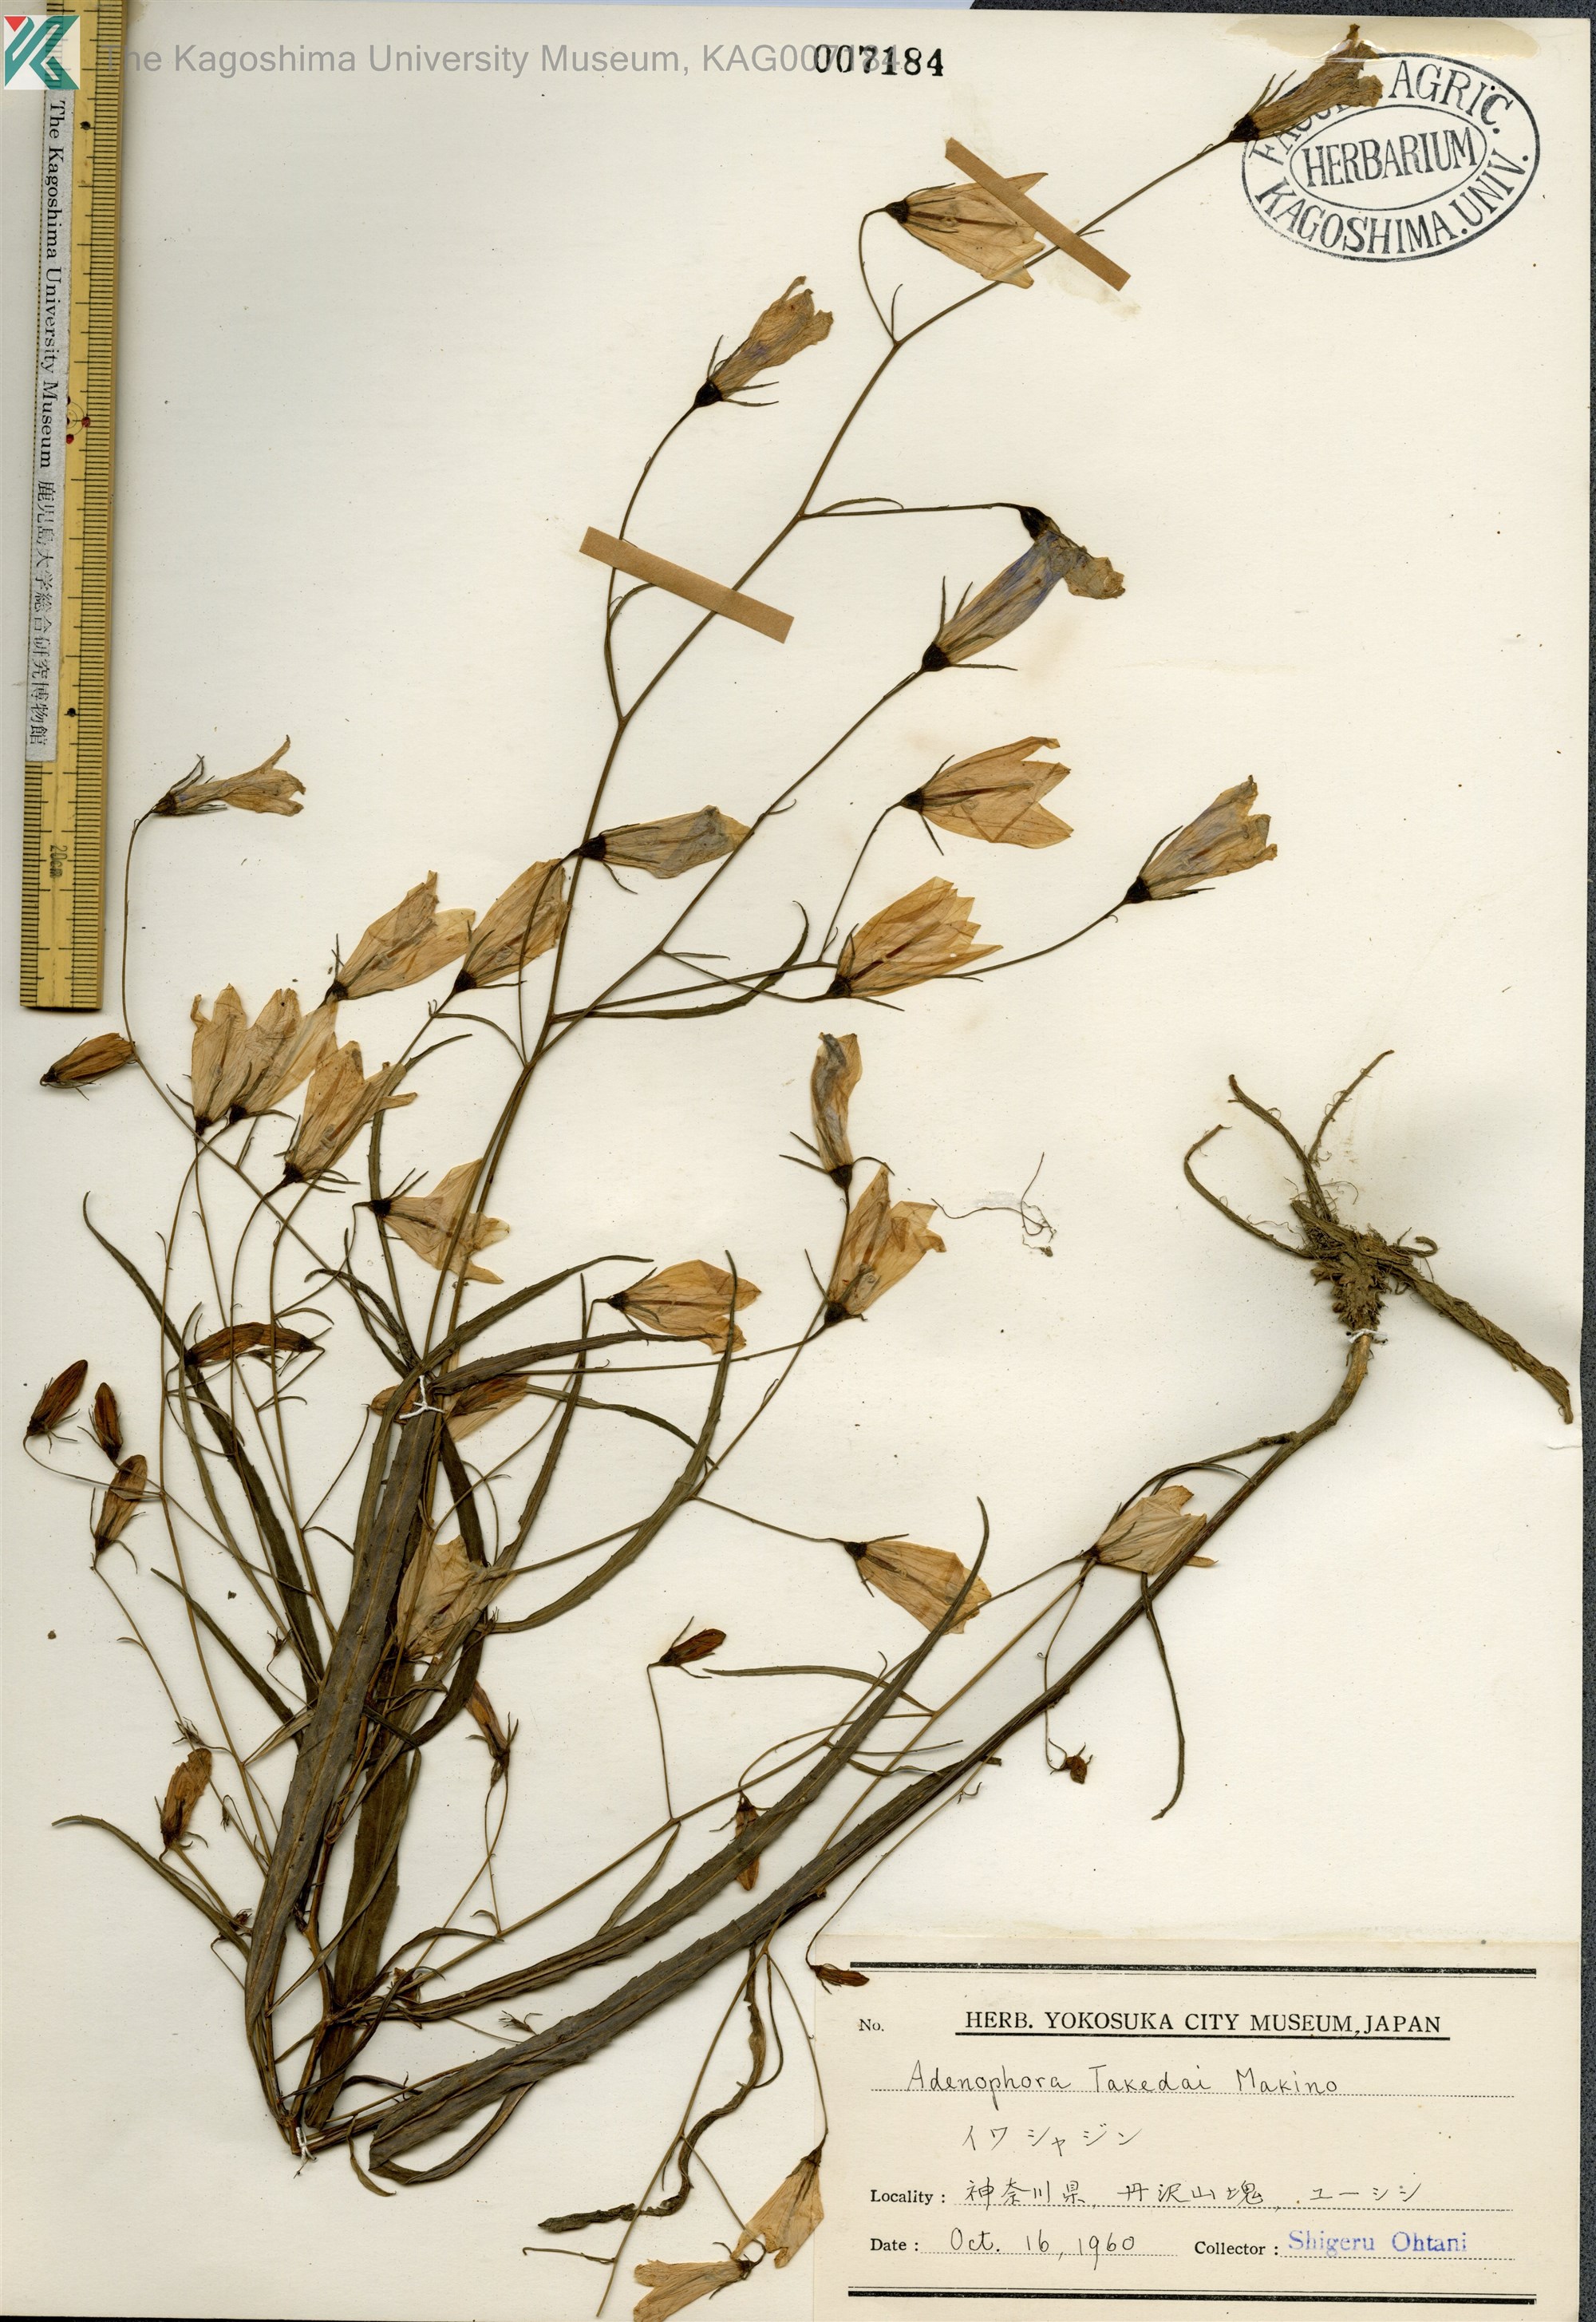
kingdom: Plantae
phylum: Tracheophyta
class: Magnoliopsida
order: Asterales
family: Campanulaceae
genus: Adenophora
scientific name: Adenophora takedae
